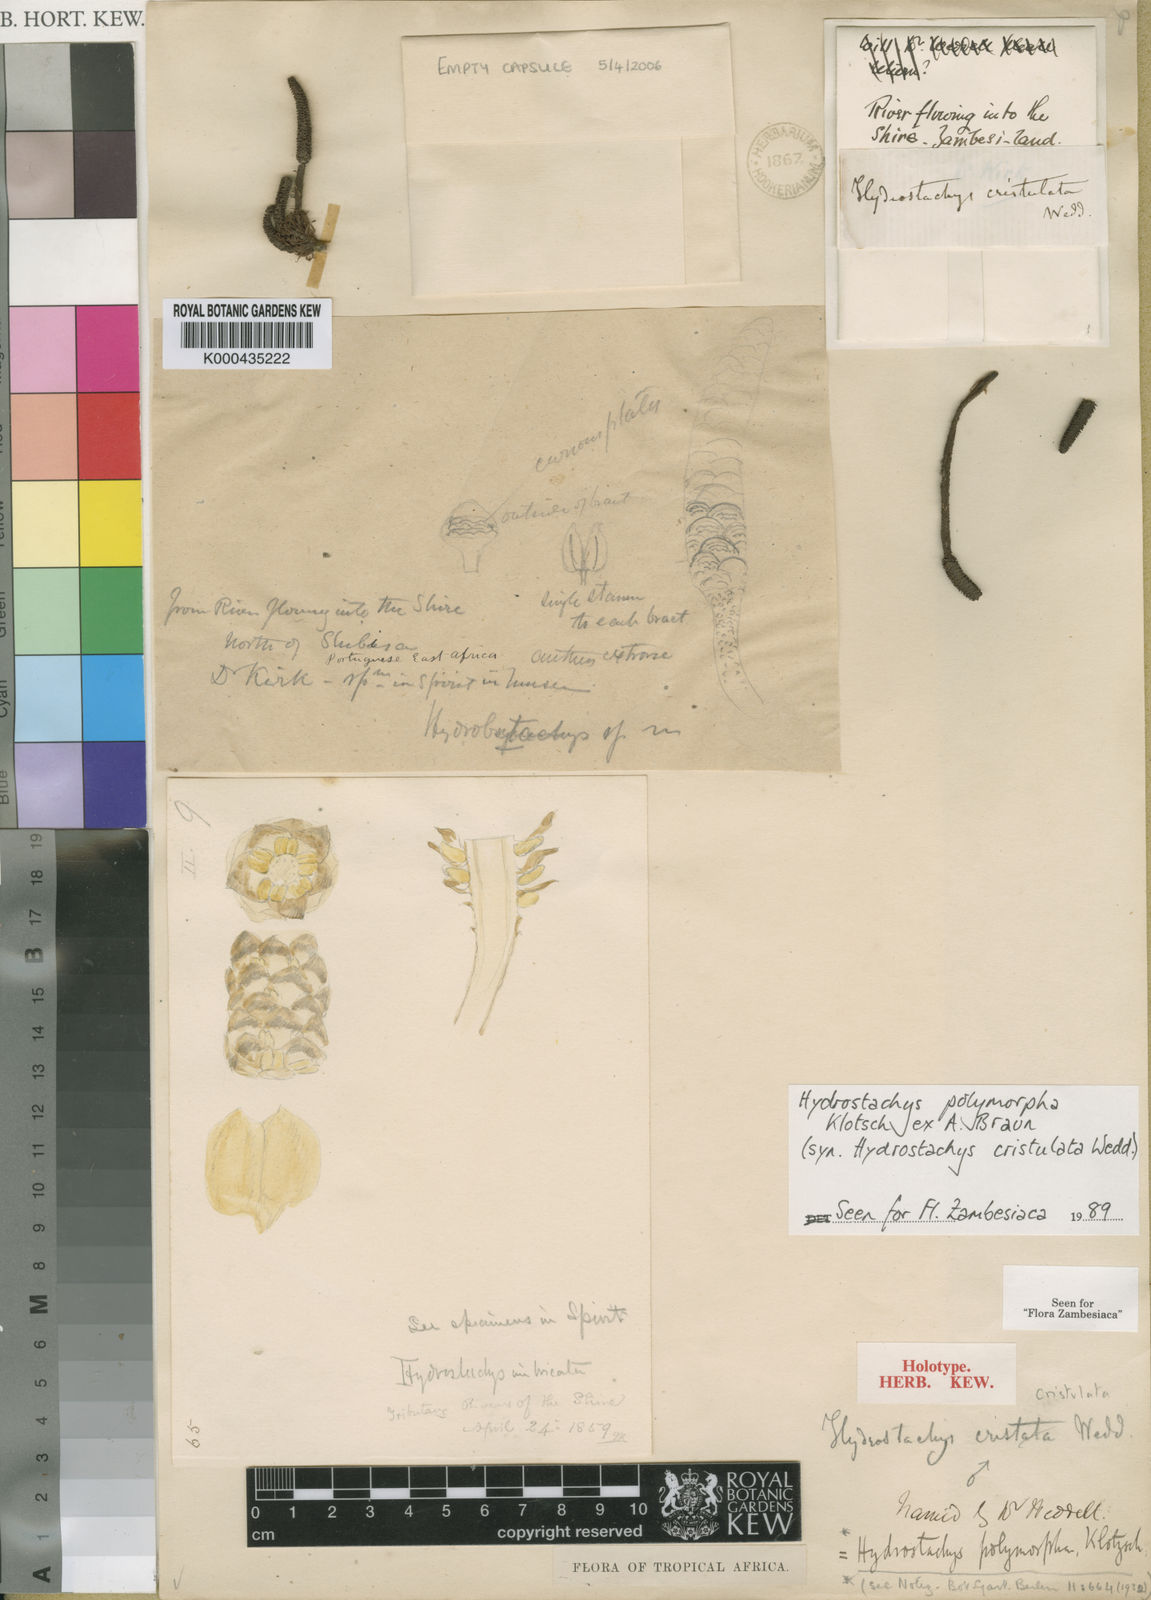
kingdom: Plantae
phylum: Tracheophyta
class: Magnoliopsida
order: Cornales
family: Hydrostachyaceae
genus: Hydrostachys
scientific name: Hydrostachys
